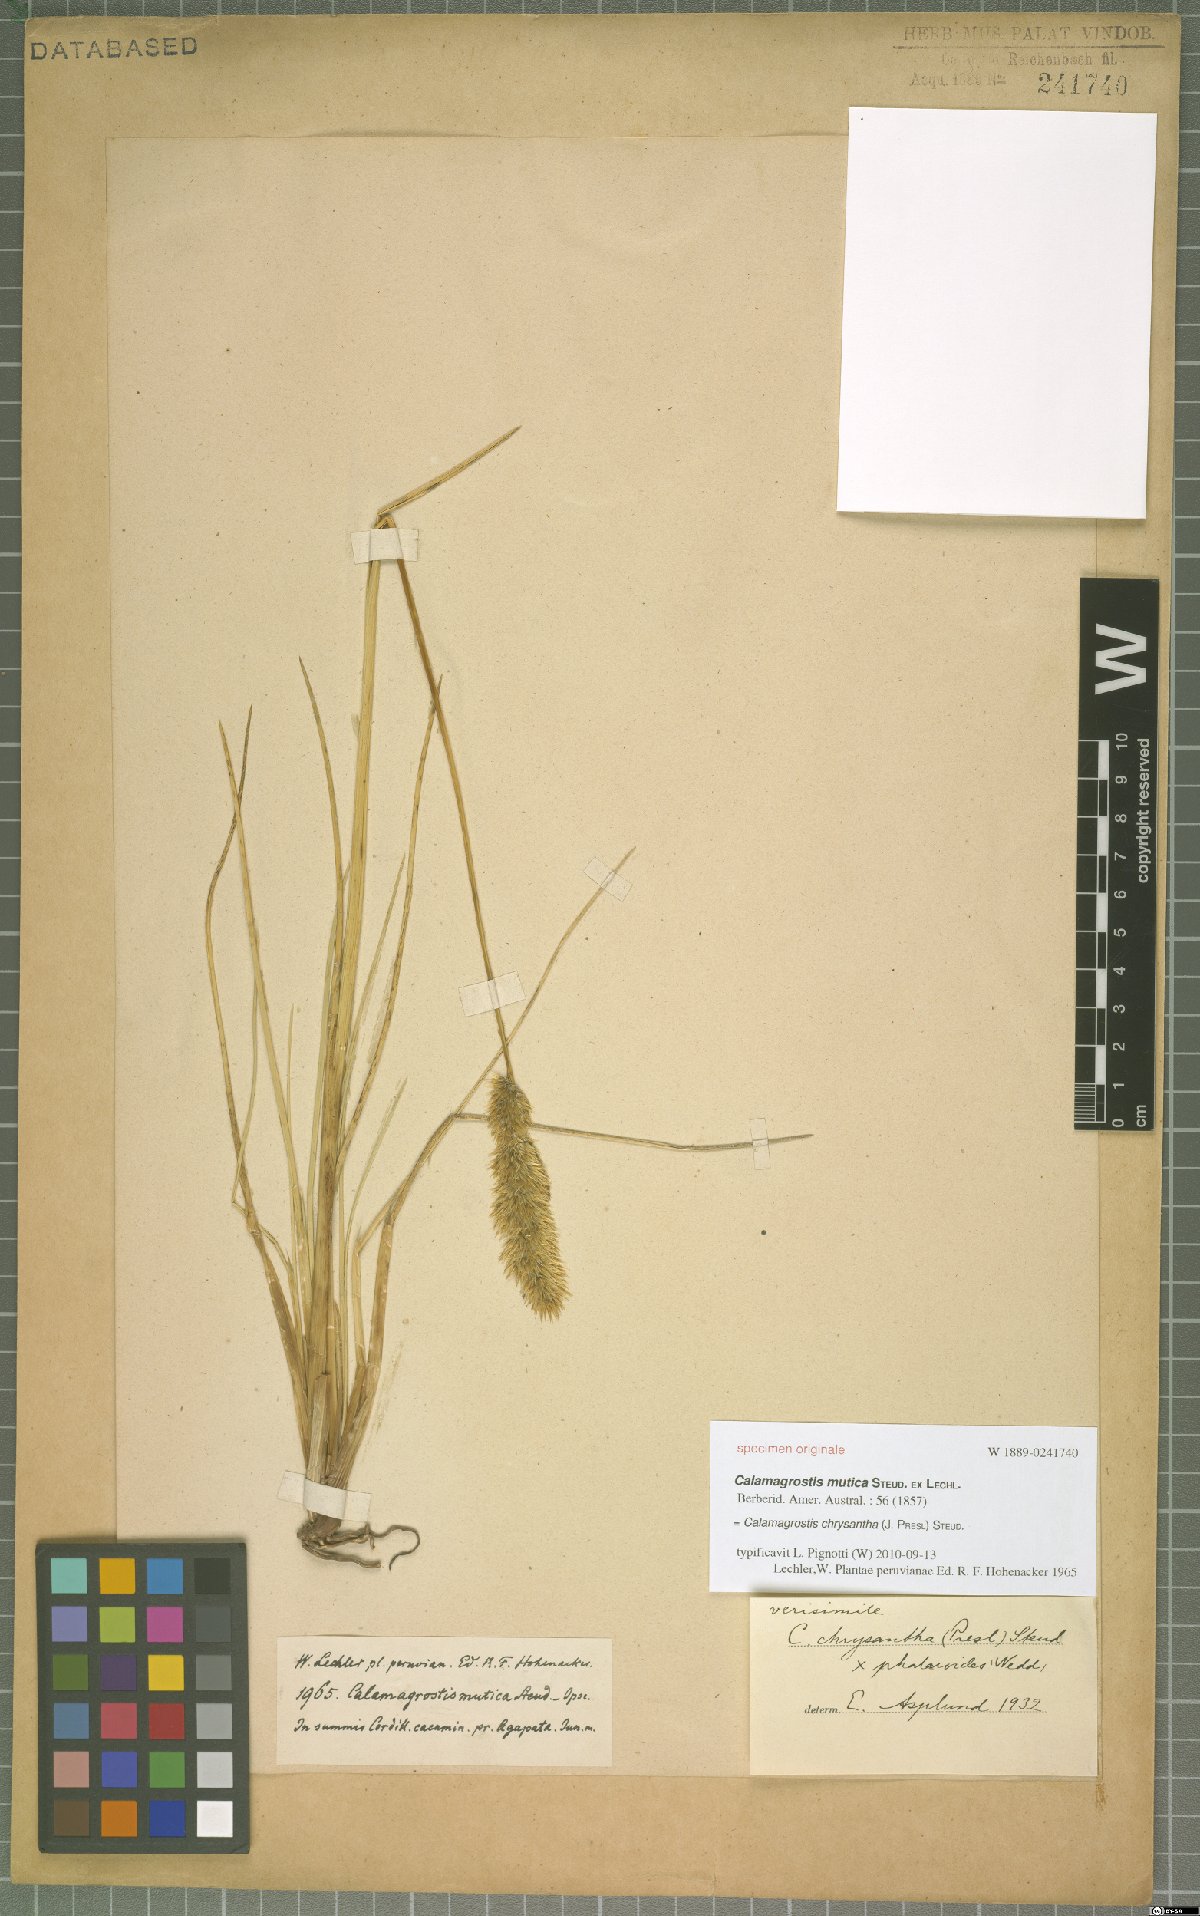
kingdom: Plantae
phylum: Tracheophyta
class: Liliopsida
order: Poales
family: Poaceae
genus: Deschampsia
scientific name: Deschampsia chrysantha
